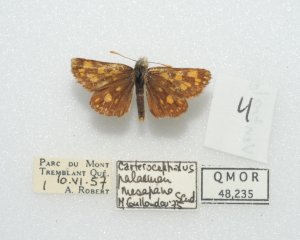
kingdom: Animalia
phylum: Arthropoda
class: Insecta
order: Lepidoptera
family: Hesperiidae
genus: Carterocephalus
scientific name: Carterocephalus palaemon
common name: Chequered Skipper
